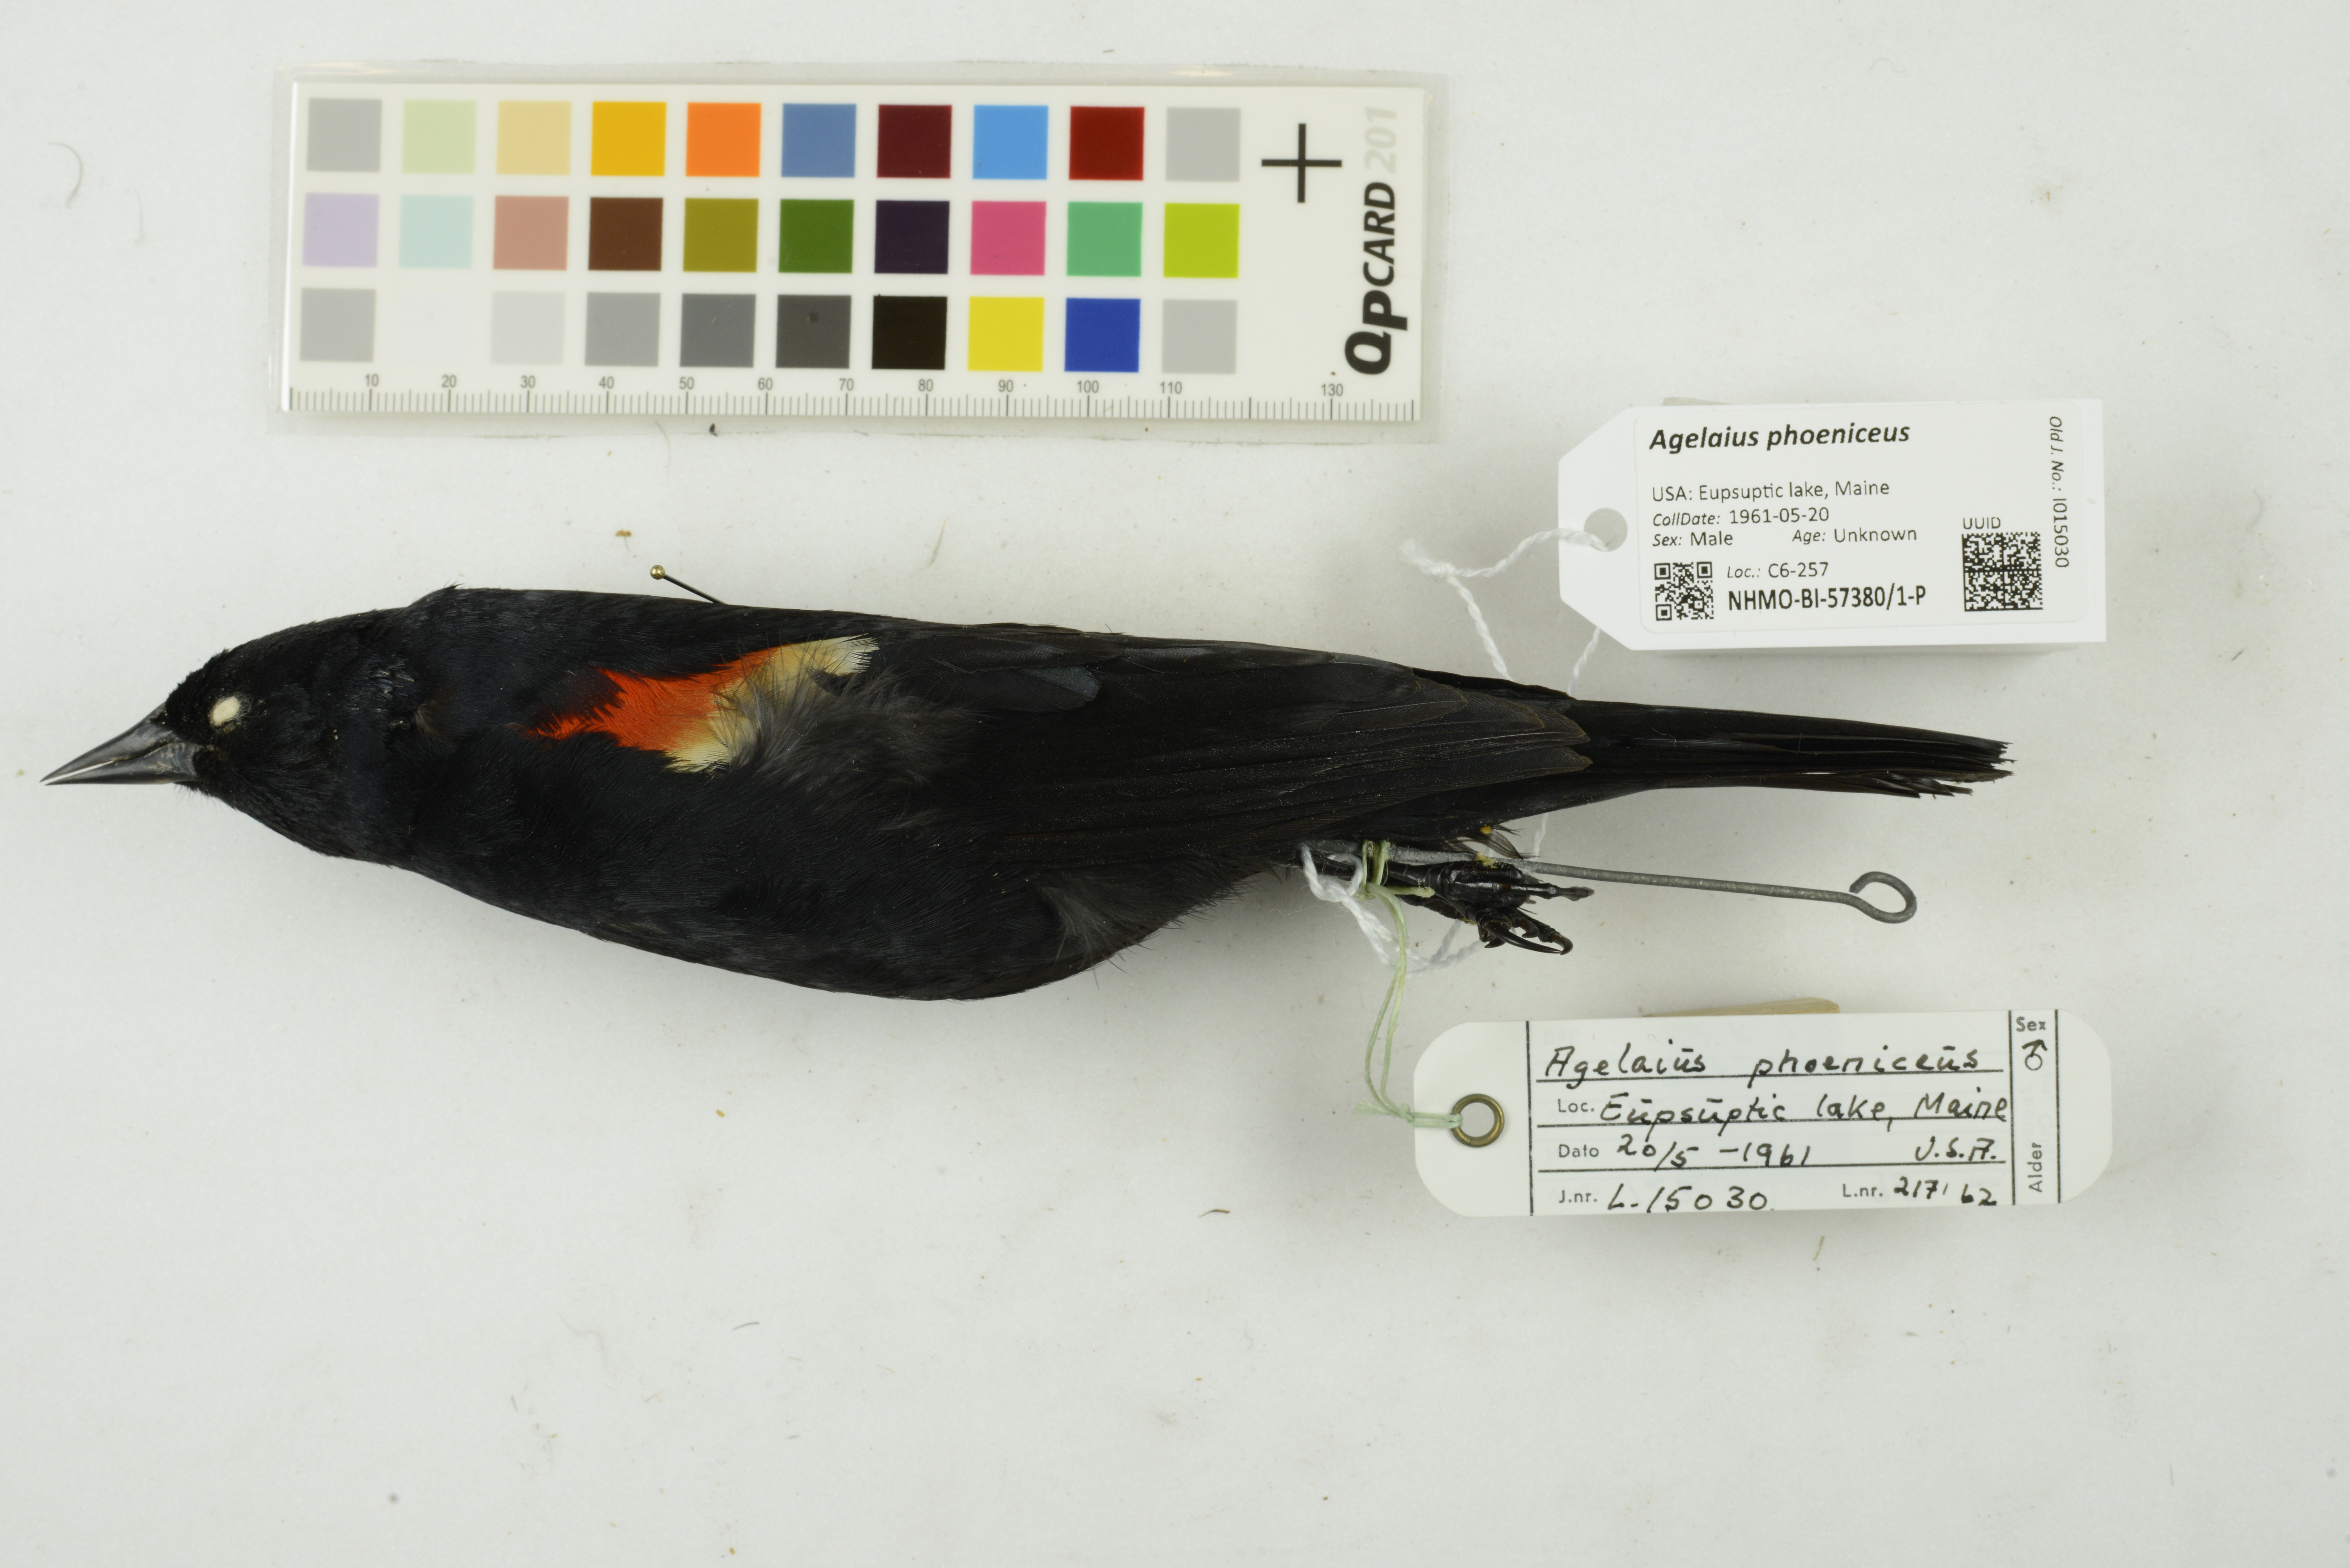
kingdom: Animalia
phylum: Chordata
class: Aves
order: Passeriformes
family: Icteridae
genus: Agelaius
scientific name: Agelaius phoeniceus
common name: Red-winged blackbird
